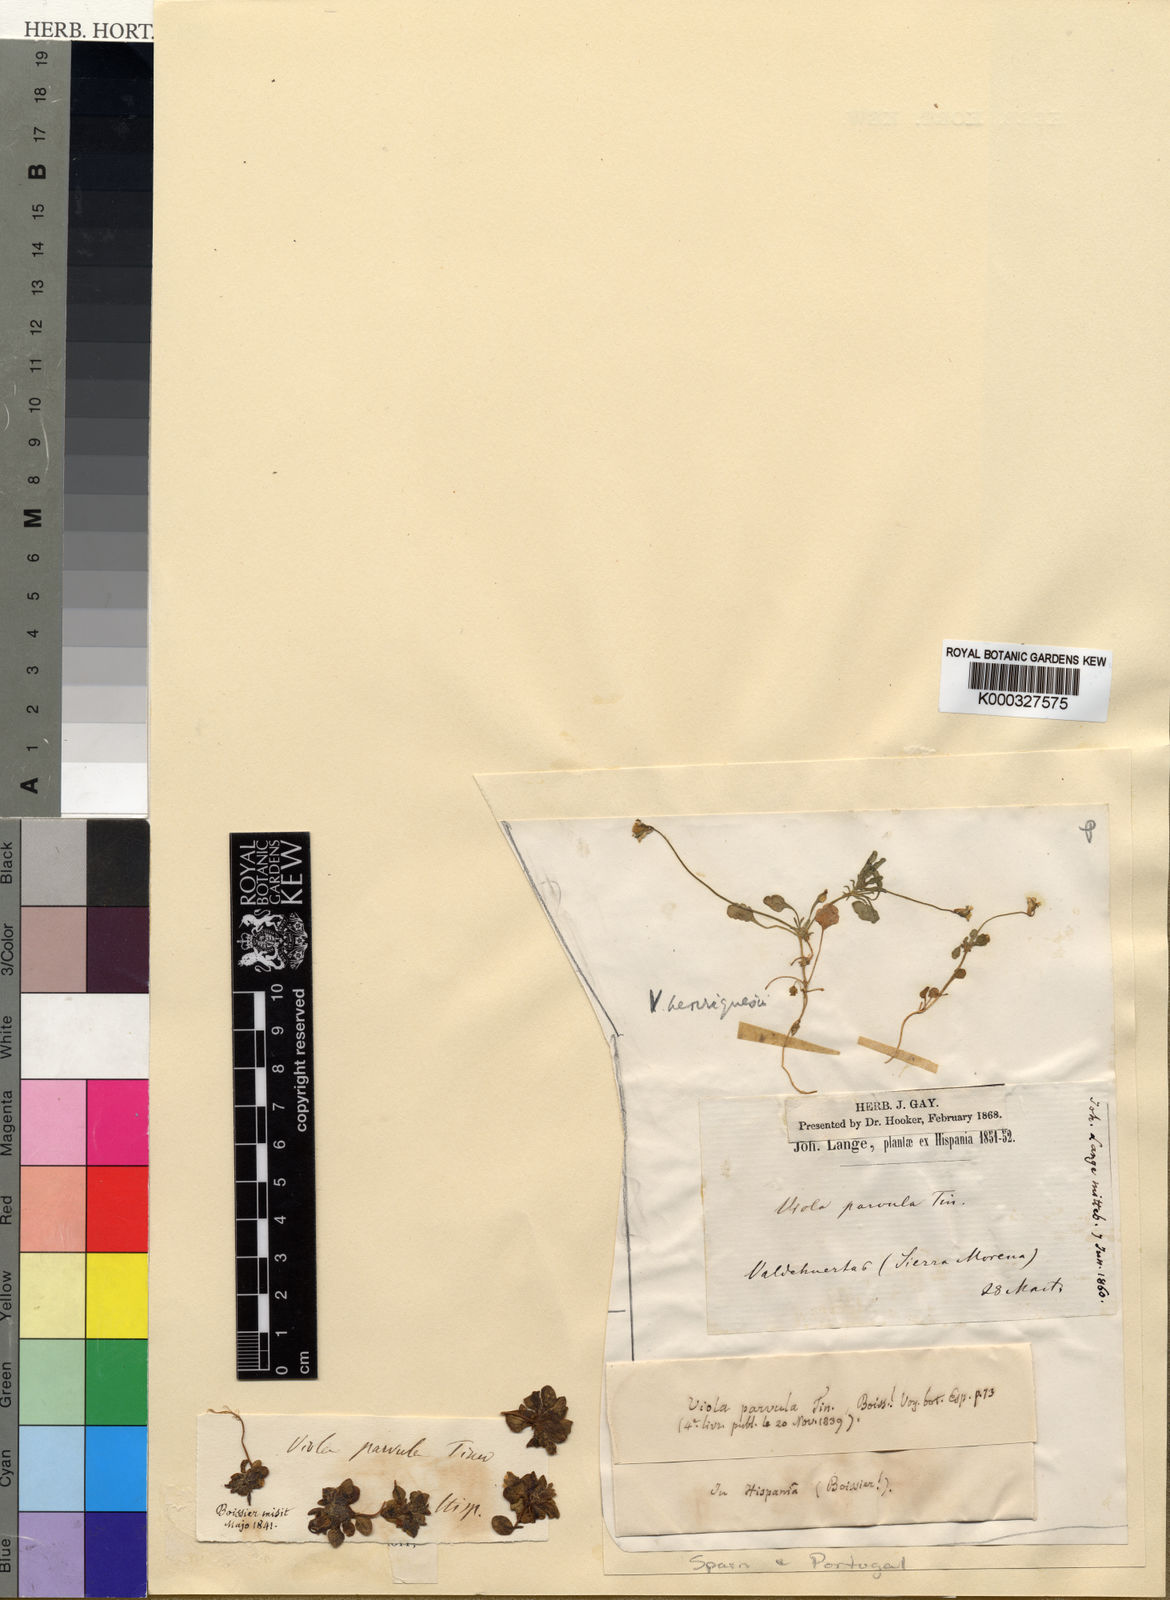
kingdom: Plantae
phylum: Tracheophyta
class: Magnoliopsida
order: Malpighiales
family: Violaceae
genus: Viola
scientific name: Viola kitaibeliana
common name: Dwarf pansy
